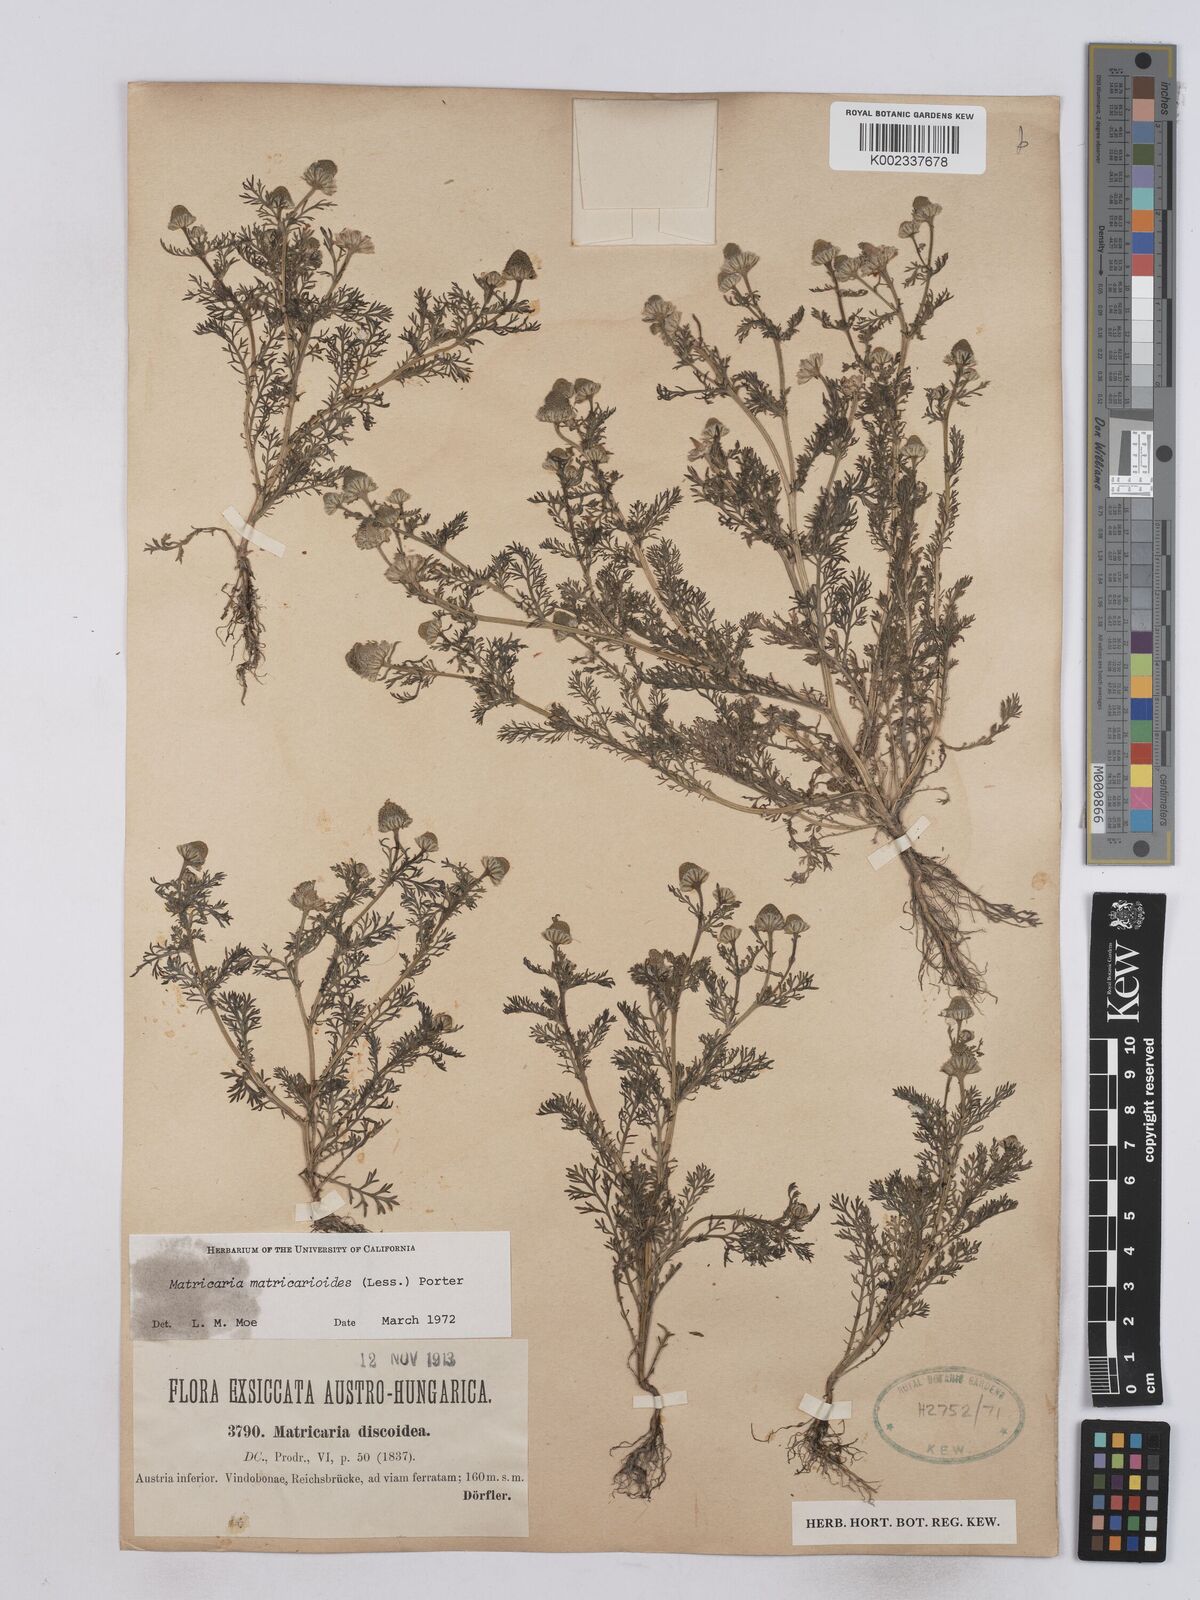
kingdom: Plantae
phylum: Tracheophyta
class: Magnoliopsida
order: Asterales
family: Asteraceae
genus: Matricaria
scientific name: Matricaria discoidea
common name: Disc mayweed
